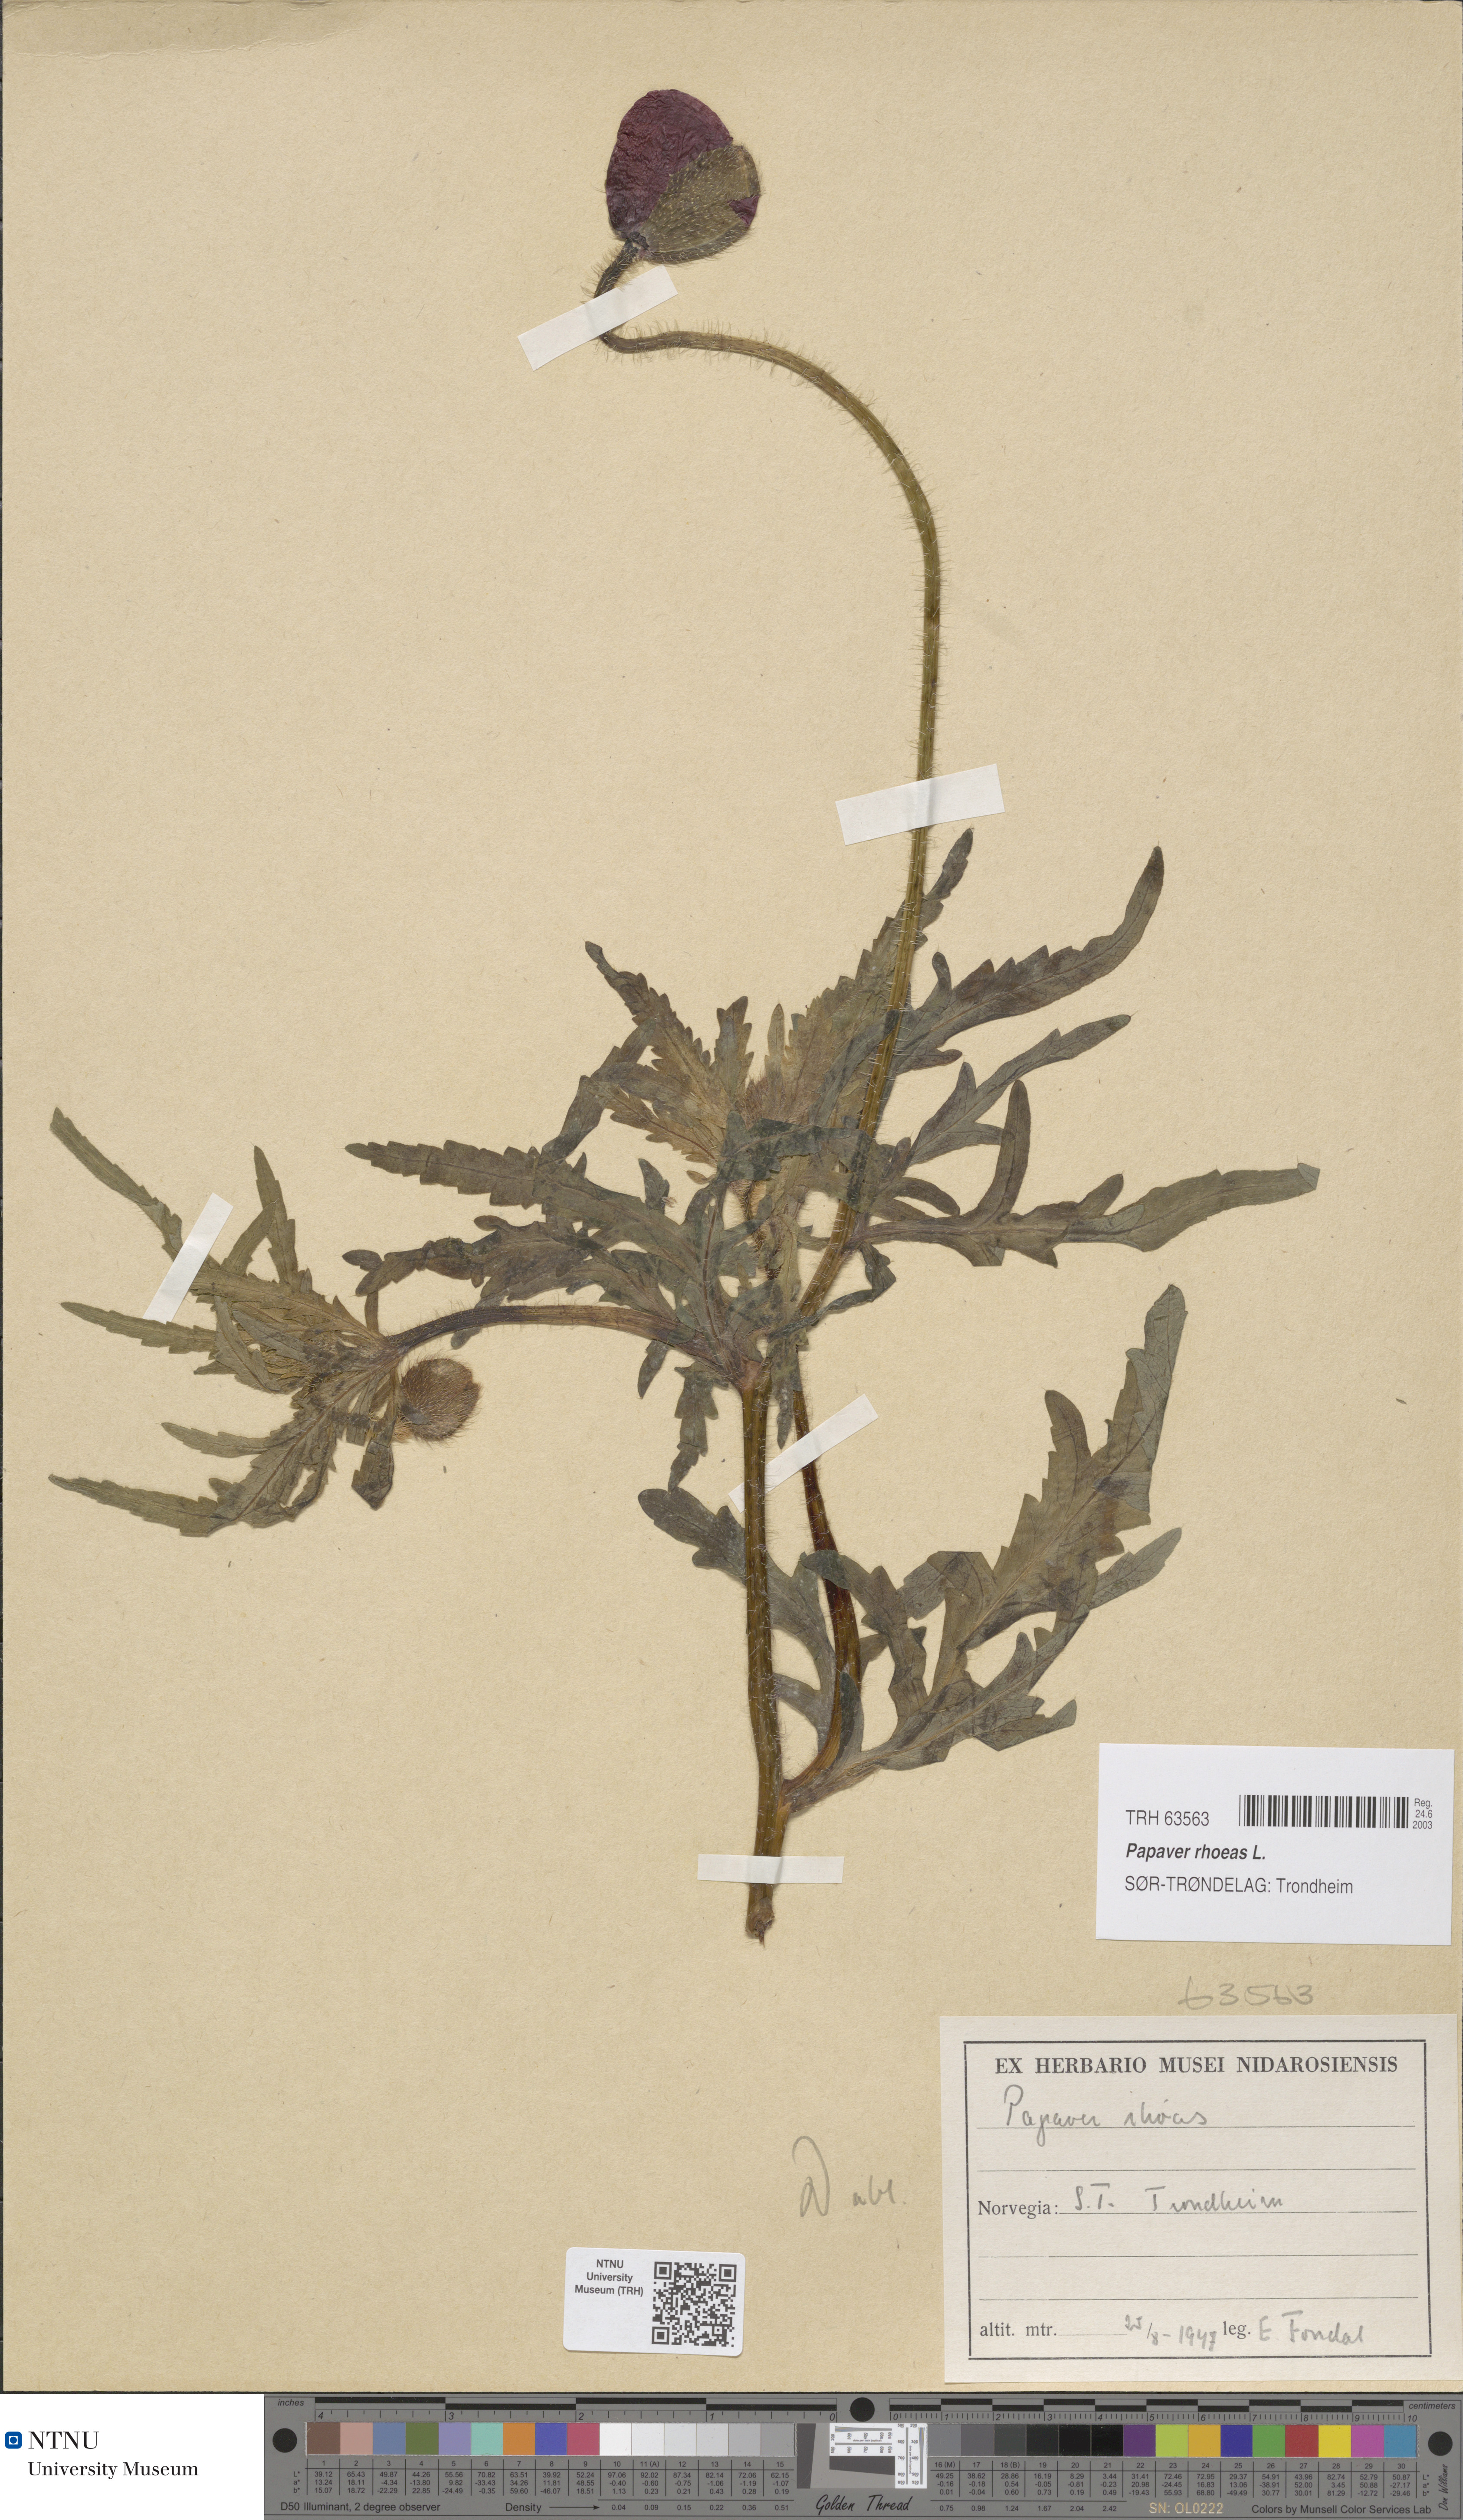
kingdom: Plantae
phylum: Tracheophyta
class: Magnoliopsida
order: Ranunculales
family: Papaveraceae
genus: Papaver
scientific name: Papaver rhoeas
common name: Corn poppy
